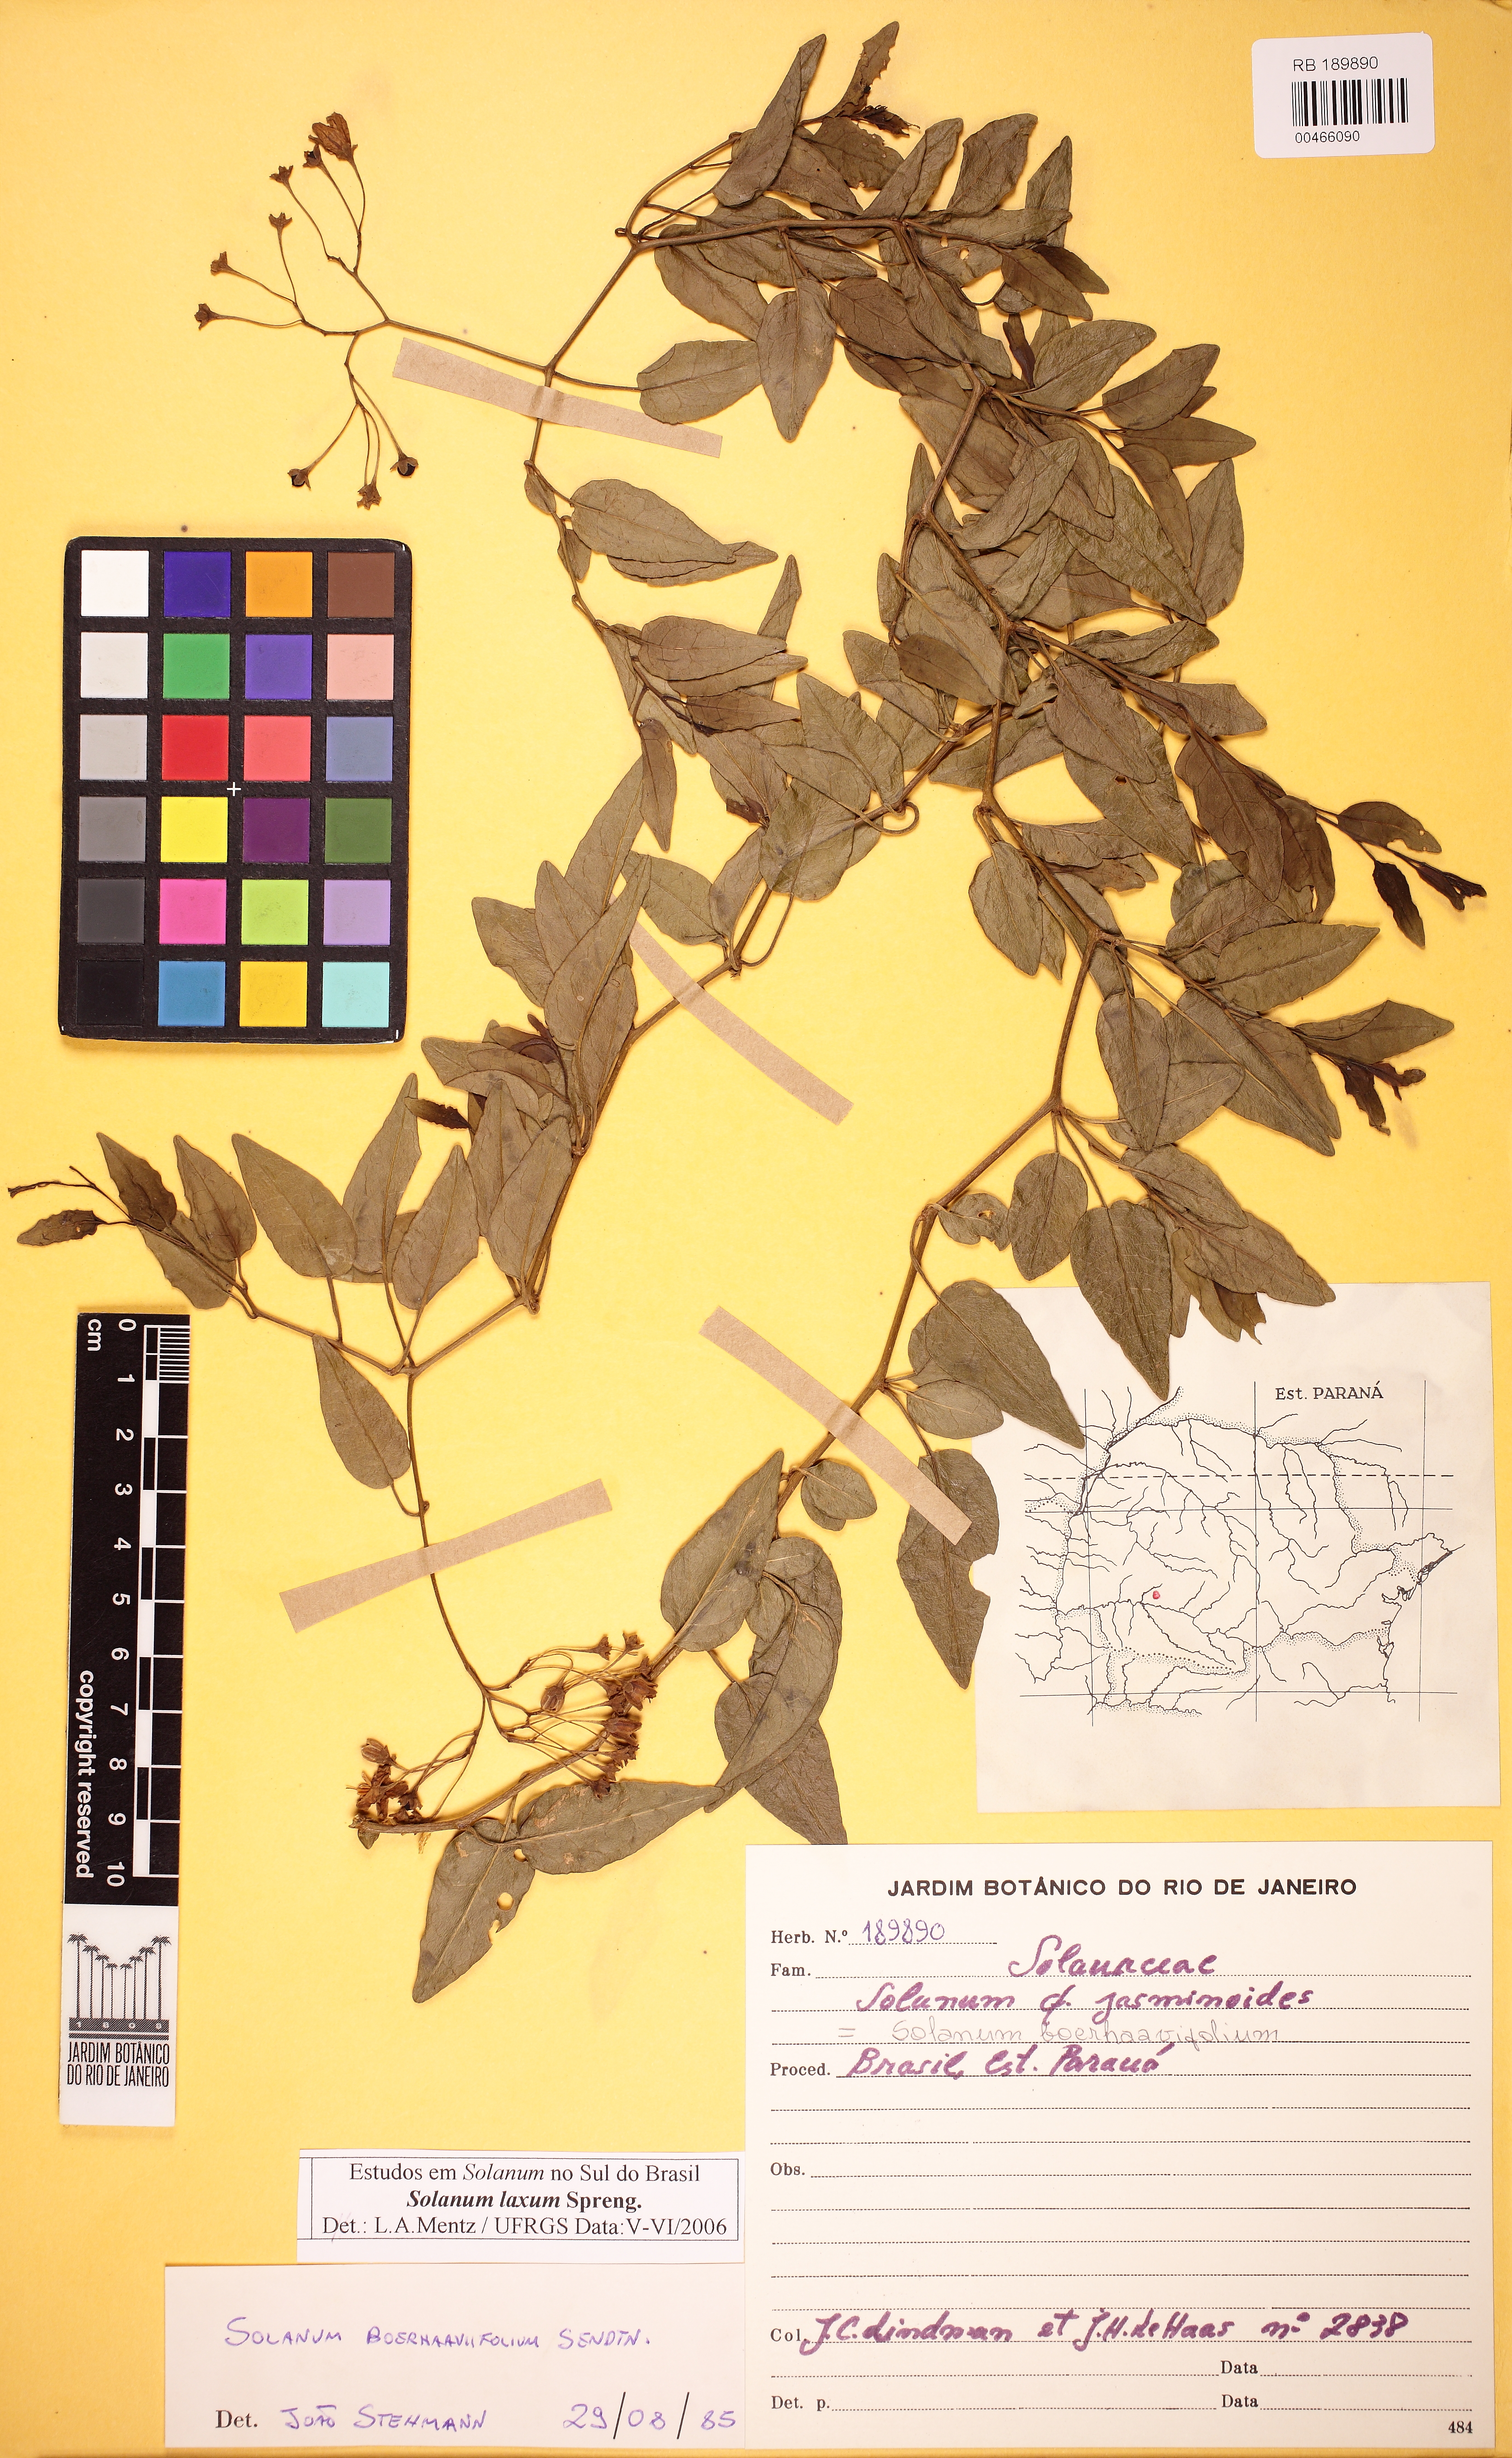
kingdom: Plantae
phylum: Tracheophyta
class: Magnoliopsida
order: Solanales
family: Solanaceae
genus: Solanum
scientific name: Solanum laxum
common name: Nightshade
